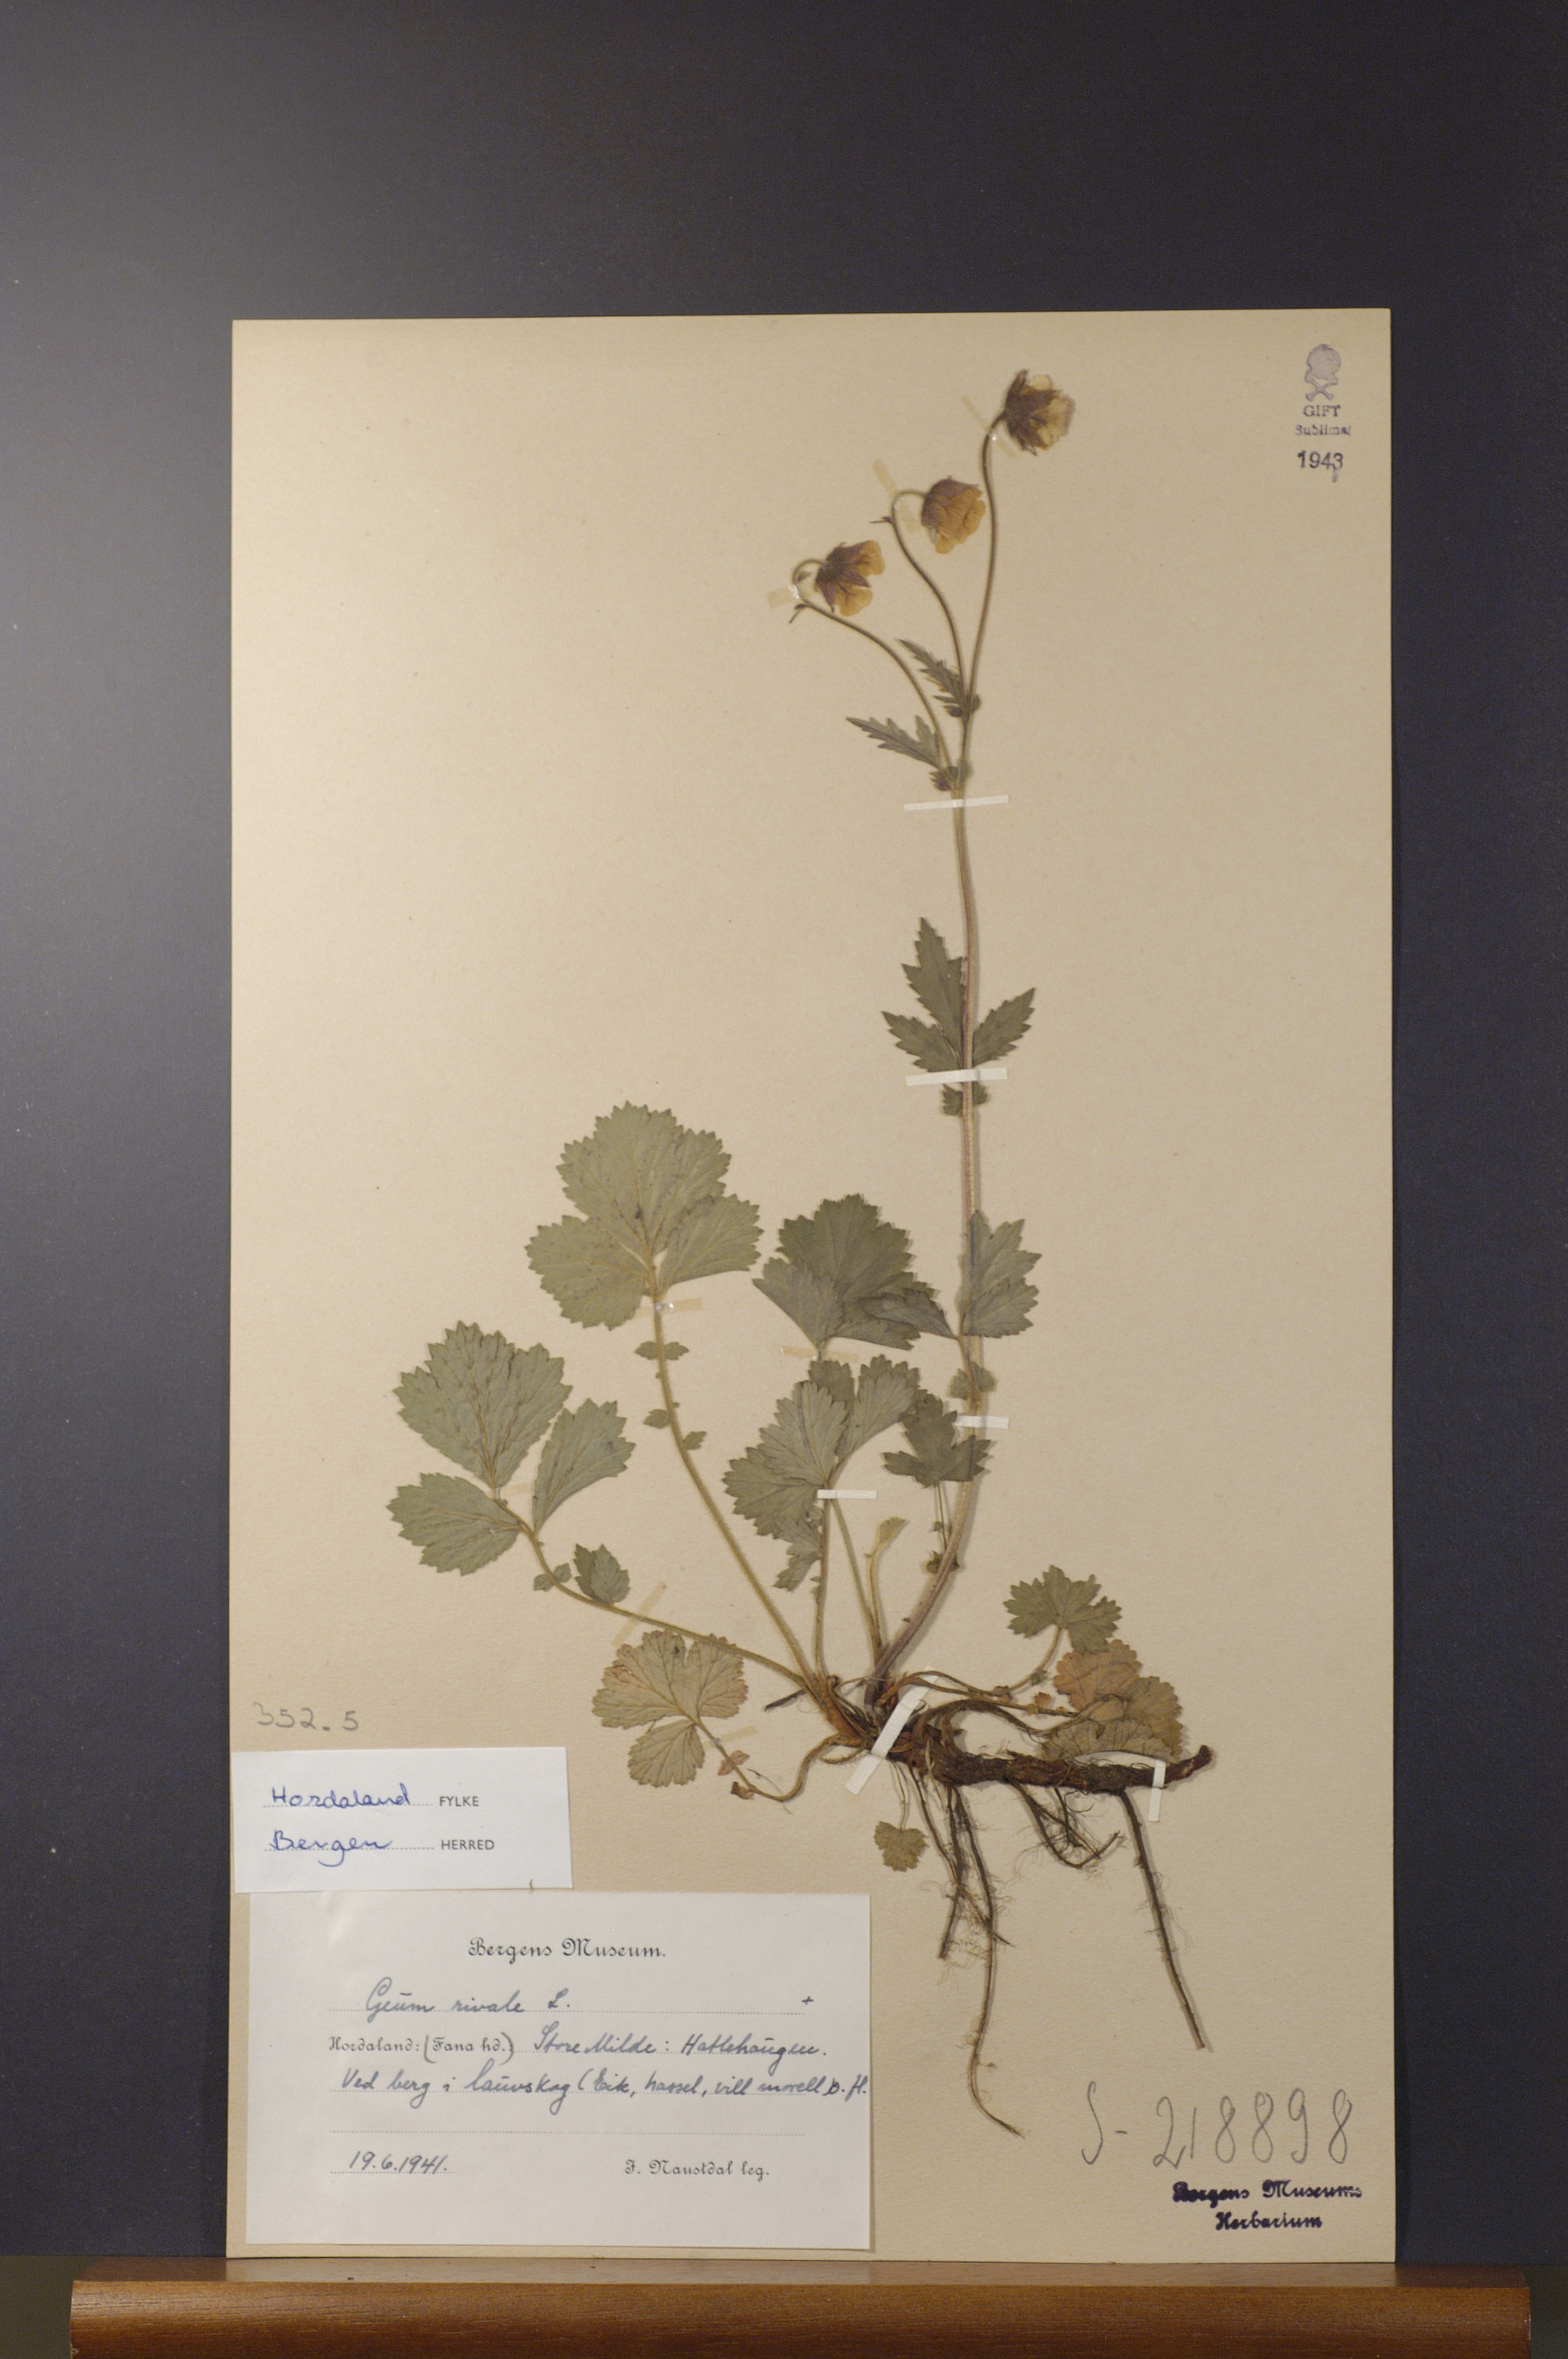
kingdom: Plantae
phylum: Tracheophyta
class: Magnoliopsida
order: Rosales
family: Rosaceae
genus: Geum
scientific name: Geum rivale
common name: Water avens
